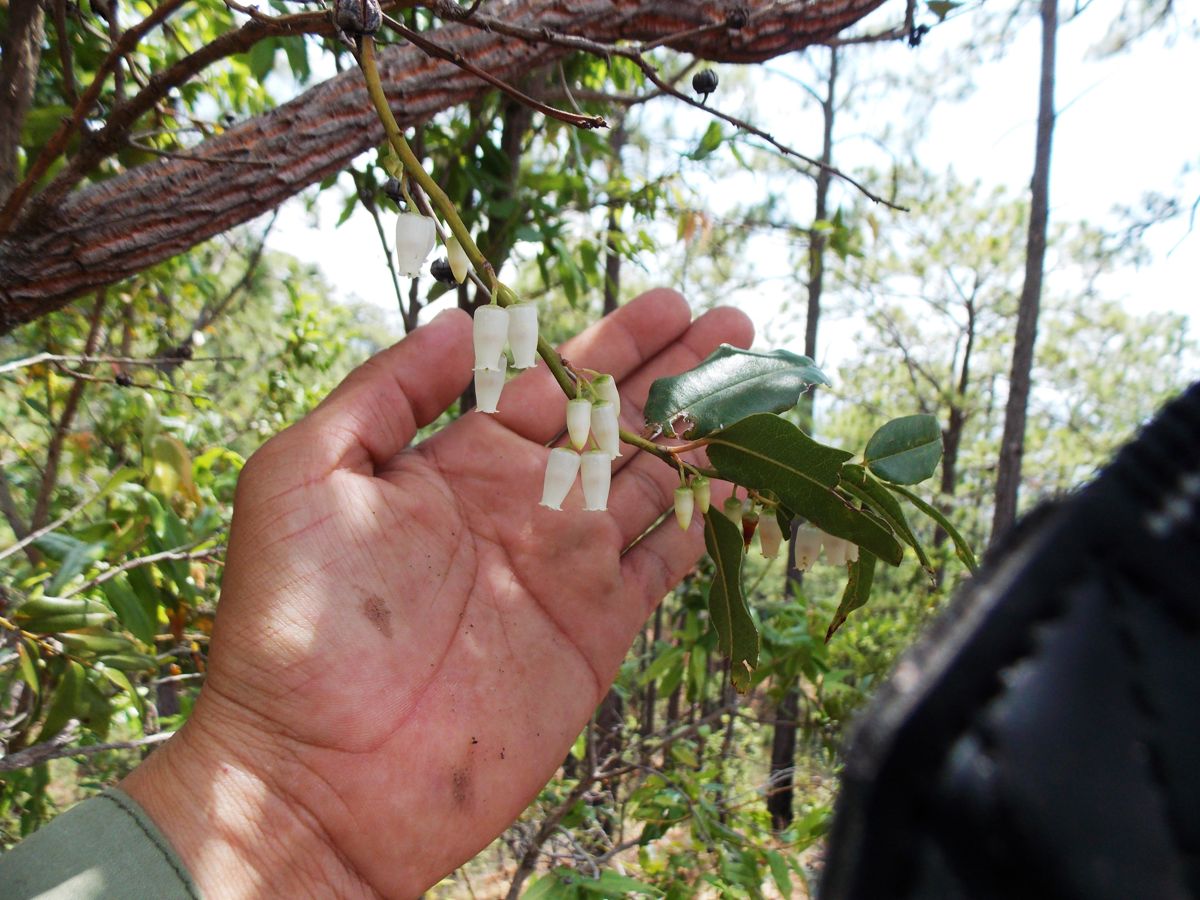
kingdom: Plantae
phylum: Tracheophyta
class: Magnoliopsida
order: Ericales
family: Ericaceae
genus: Agarista
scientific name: Agarista mexicana
